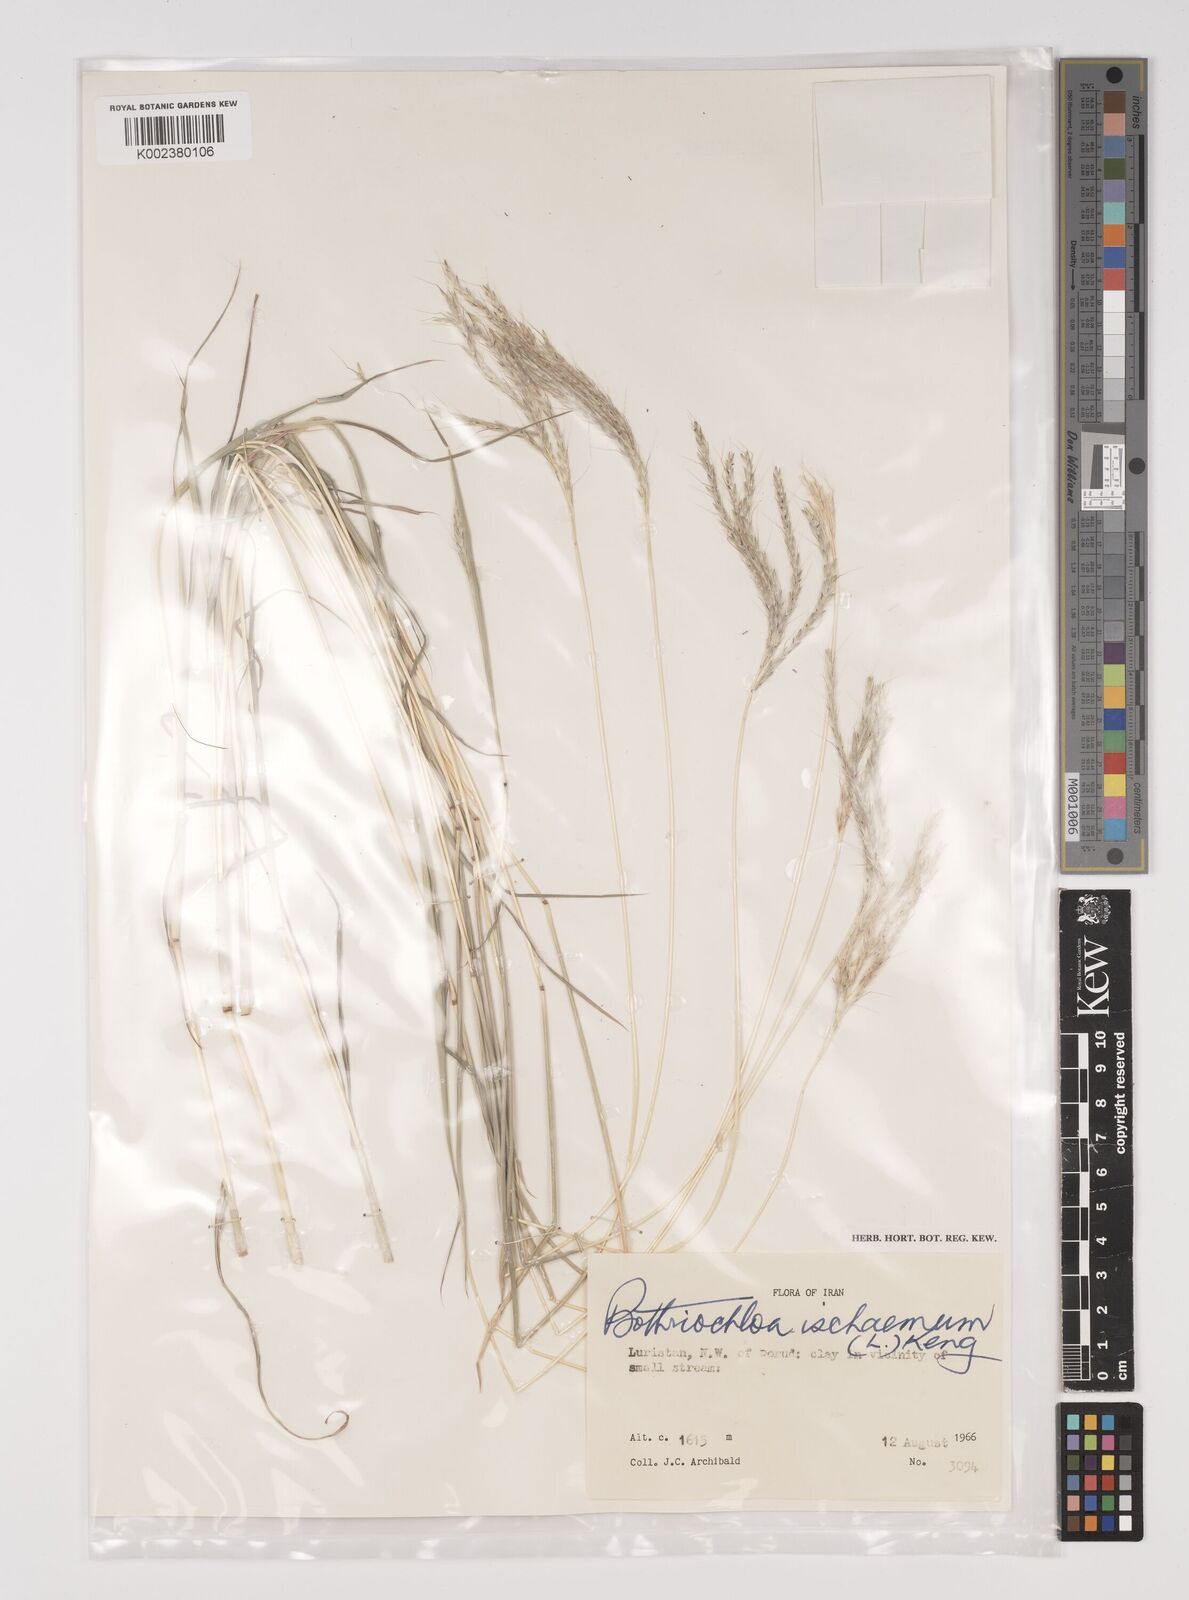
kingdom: Plantae
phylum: Tracheophyta
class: Liliopsida
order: Poales
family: Poaceae
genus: Bothriochloa
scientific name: Bothriochloa ischaemum
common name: Yellow bluestem
